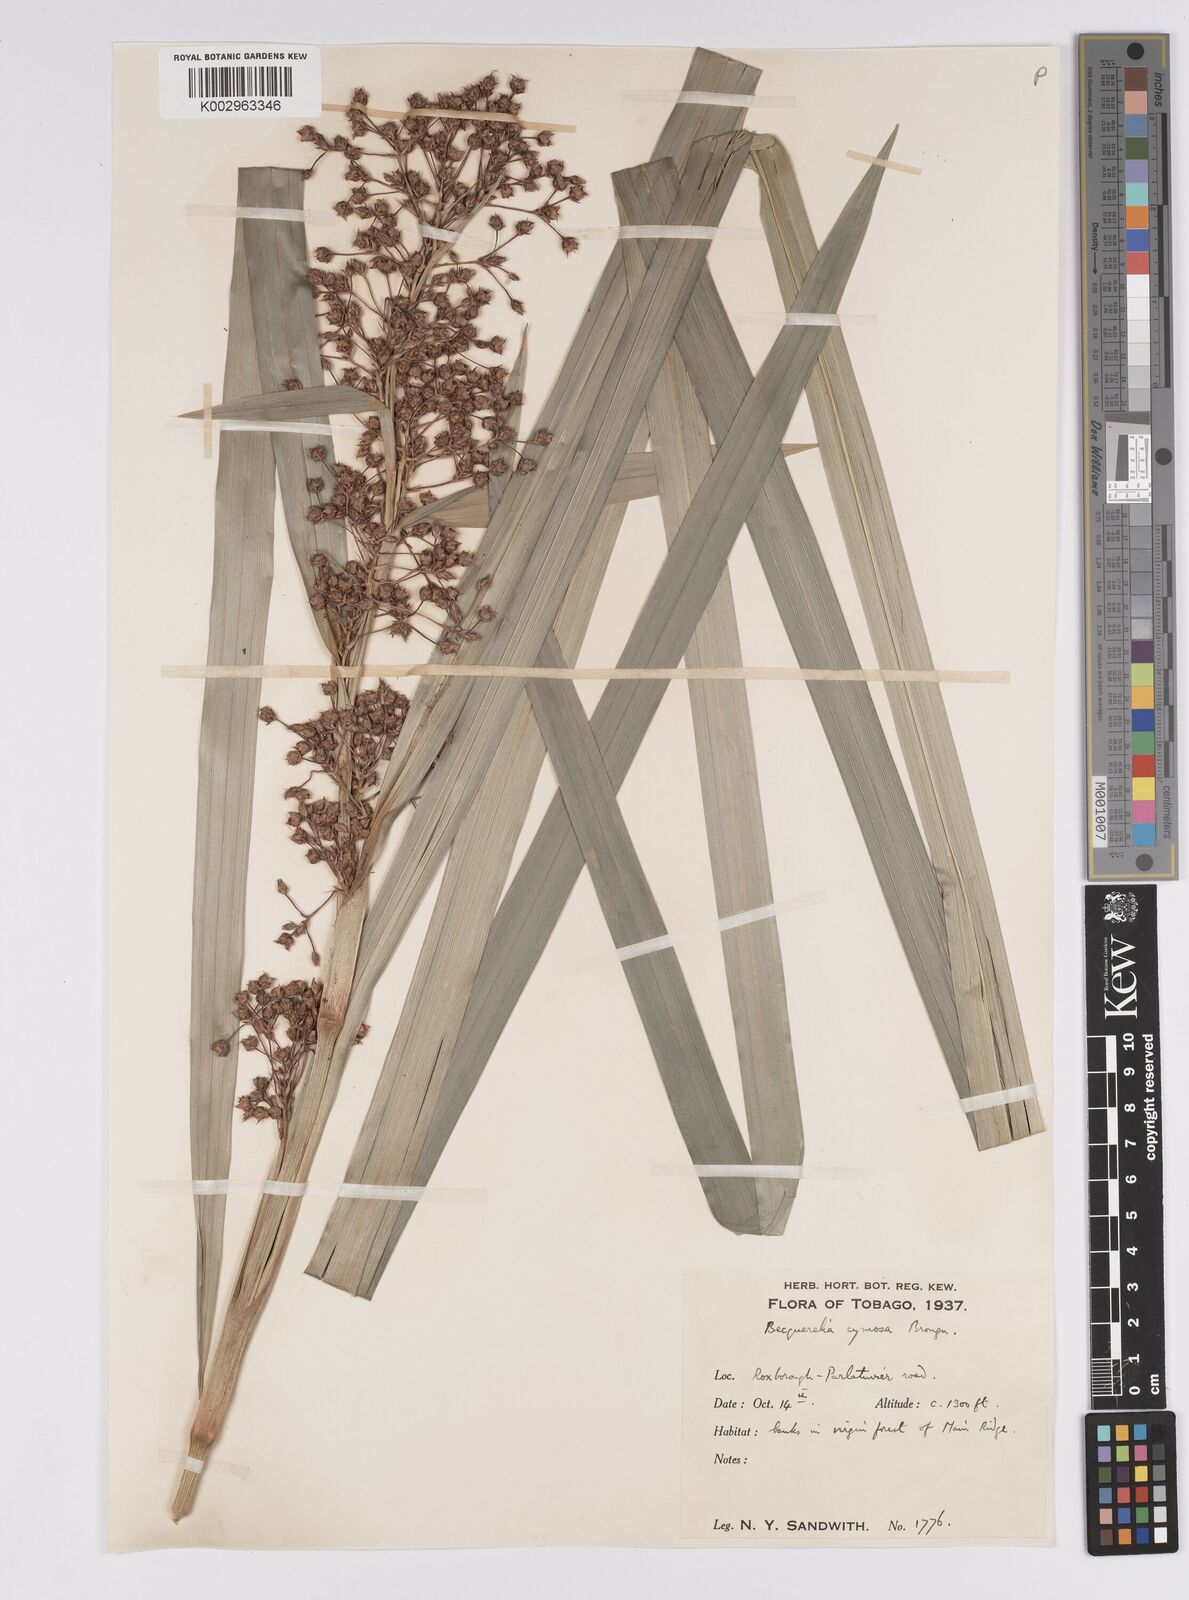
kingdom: Plantae
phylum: Tracheophyta
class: Liliopsida
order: Poales
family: Cyperaceae
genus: Becquerelia
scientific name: Becquerelia cymosa
